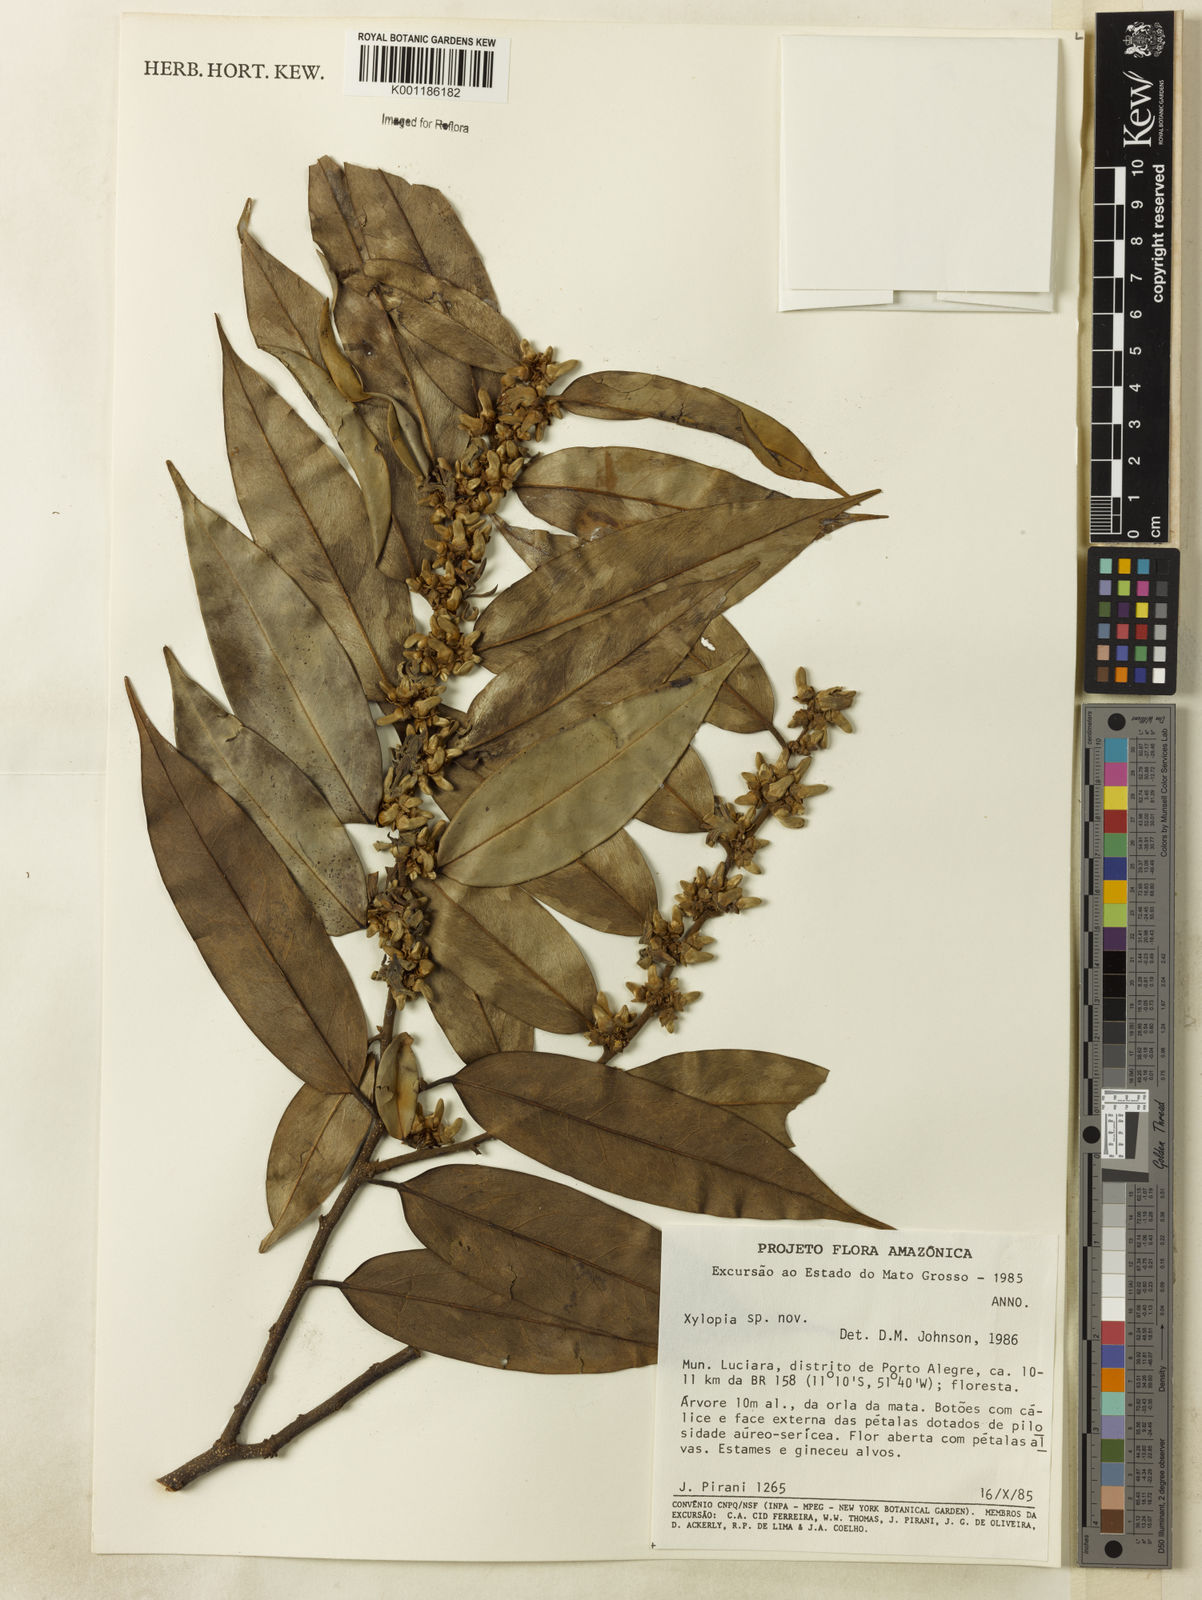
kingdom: Plantae
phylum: Tracheophyta
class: Magnoliopsida
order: Magnoliales
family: Annonaceae
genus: Xylopia
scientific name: Xylopia
